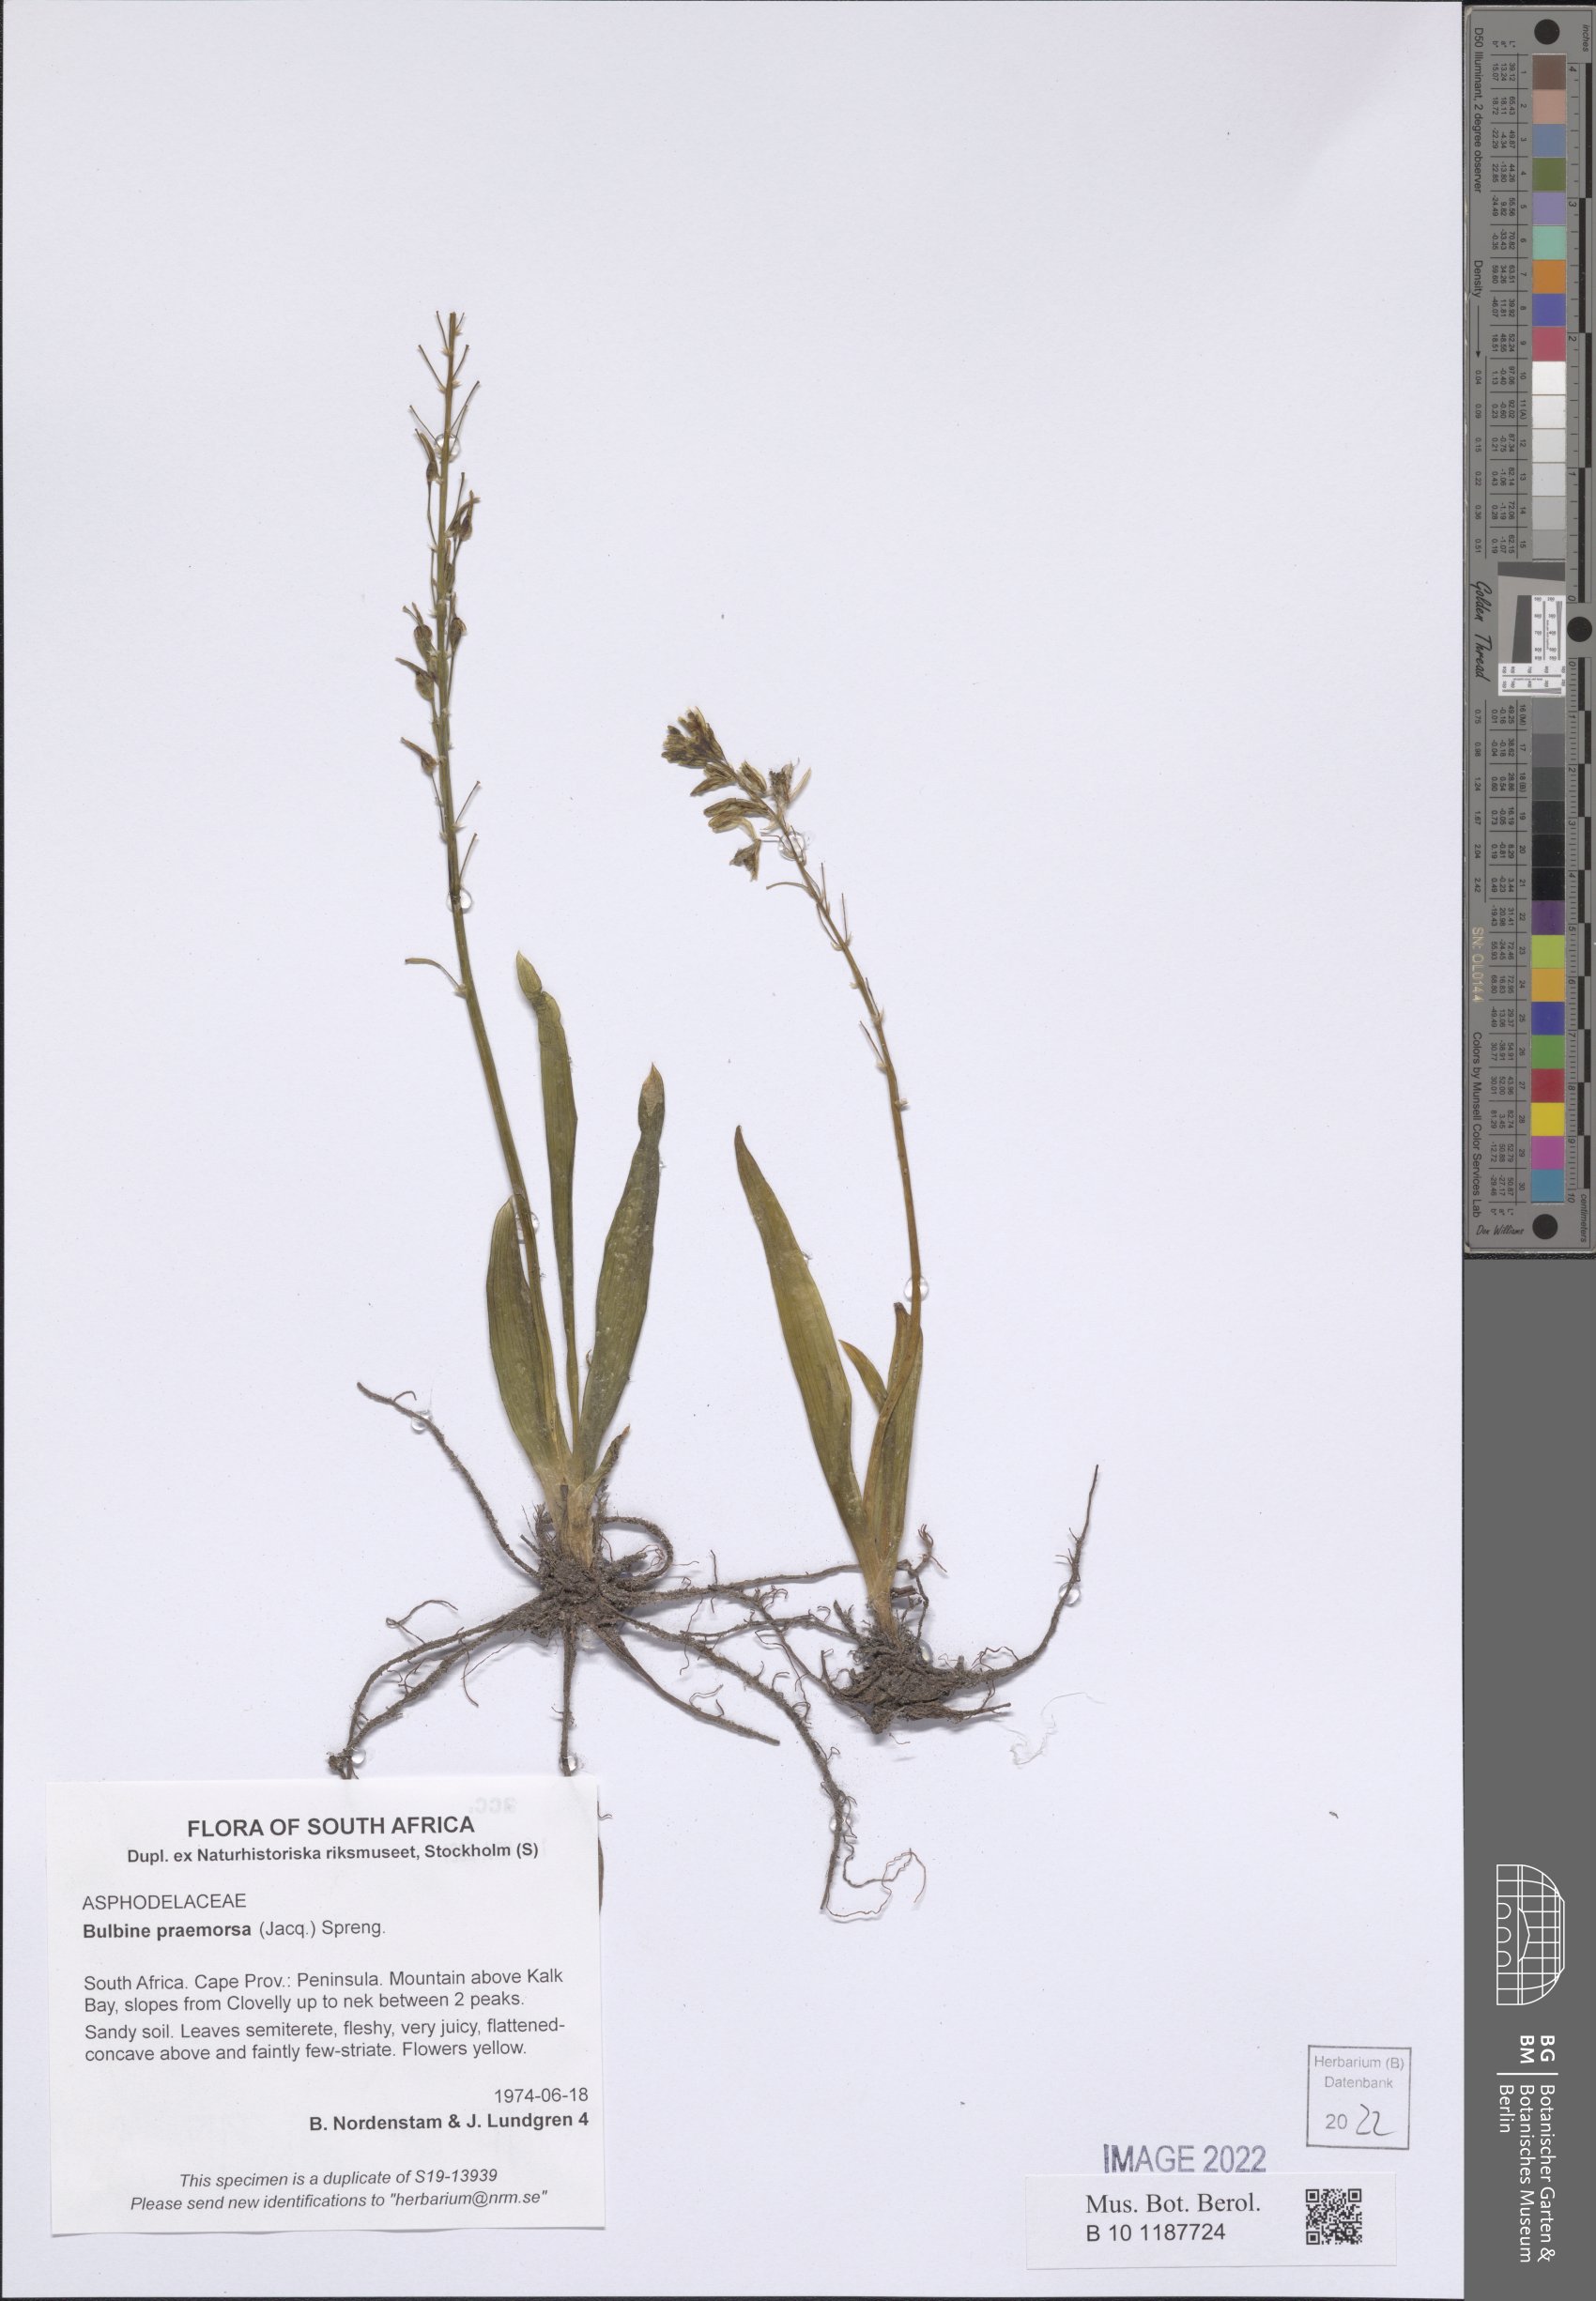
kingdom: Plantae
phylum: Tracheophyta
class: Liliopsida
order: Asparagales
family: Asphodelaceae
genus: Bulbine
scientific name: Bulbine praemorsa
